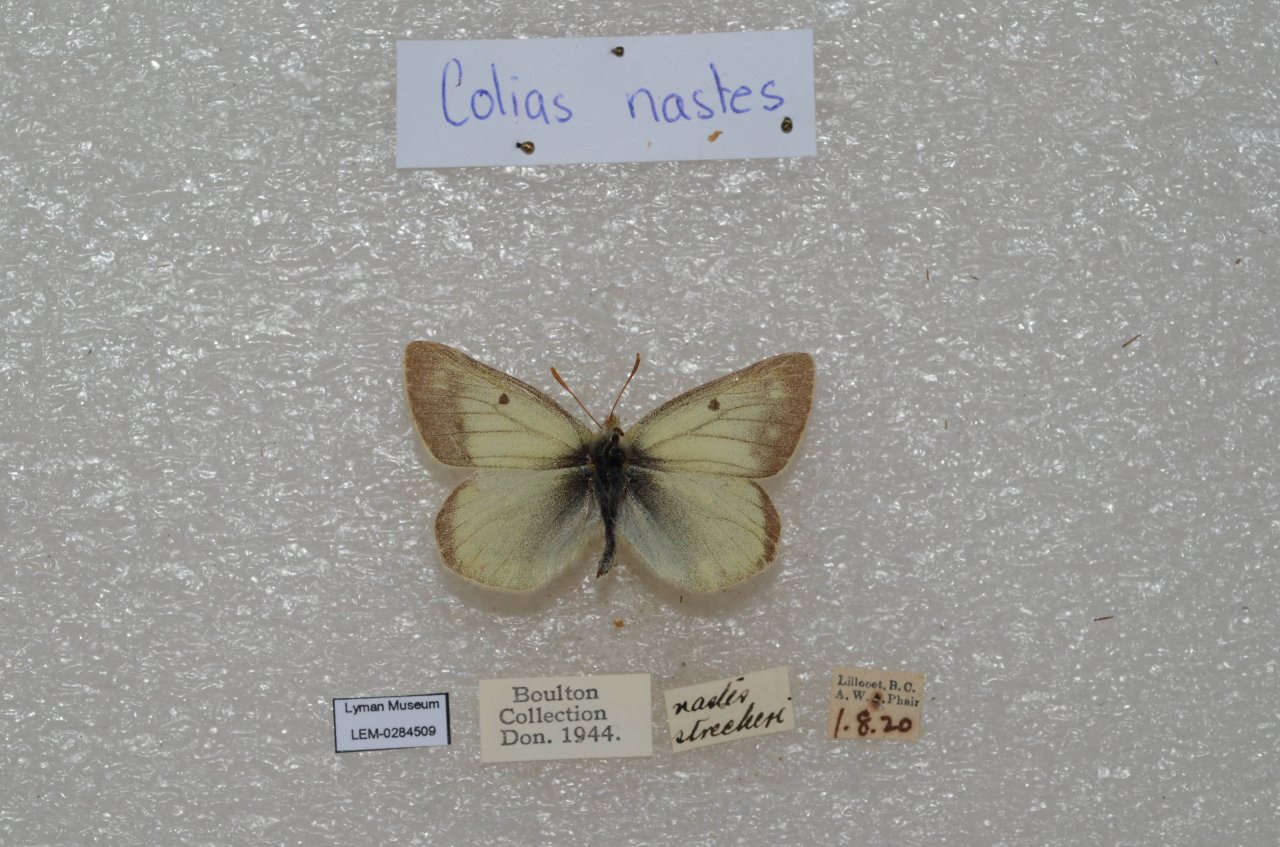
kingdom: Animalia
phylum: Arthropoda
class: Insecta
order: Lepidoptera
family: Pieridae
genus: Colias
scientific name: Colias nastes
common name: Labrador Sulphur
